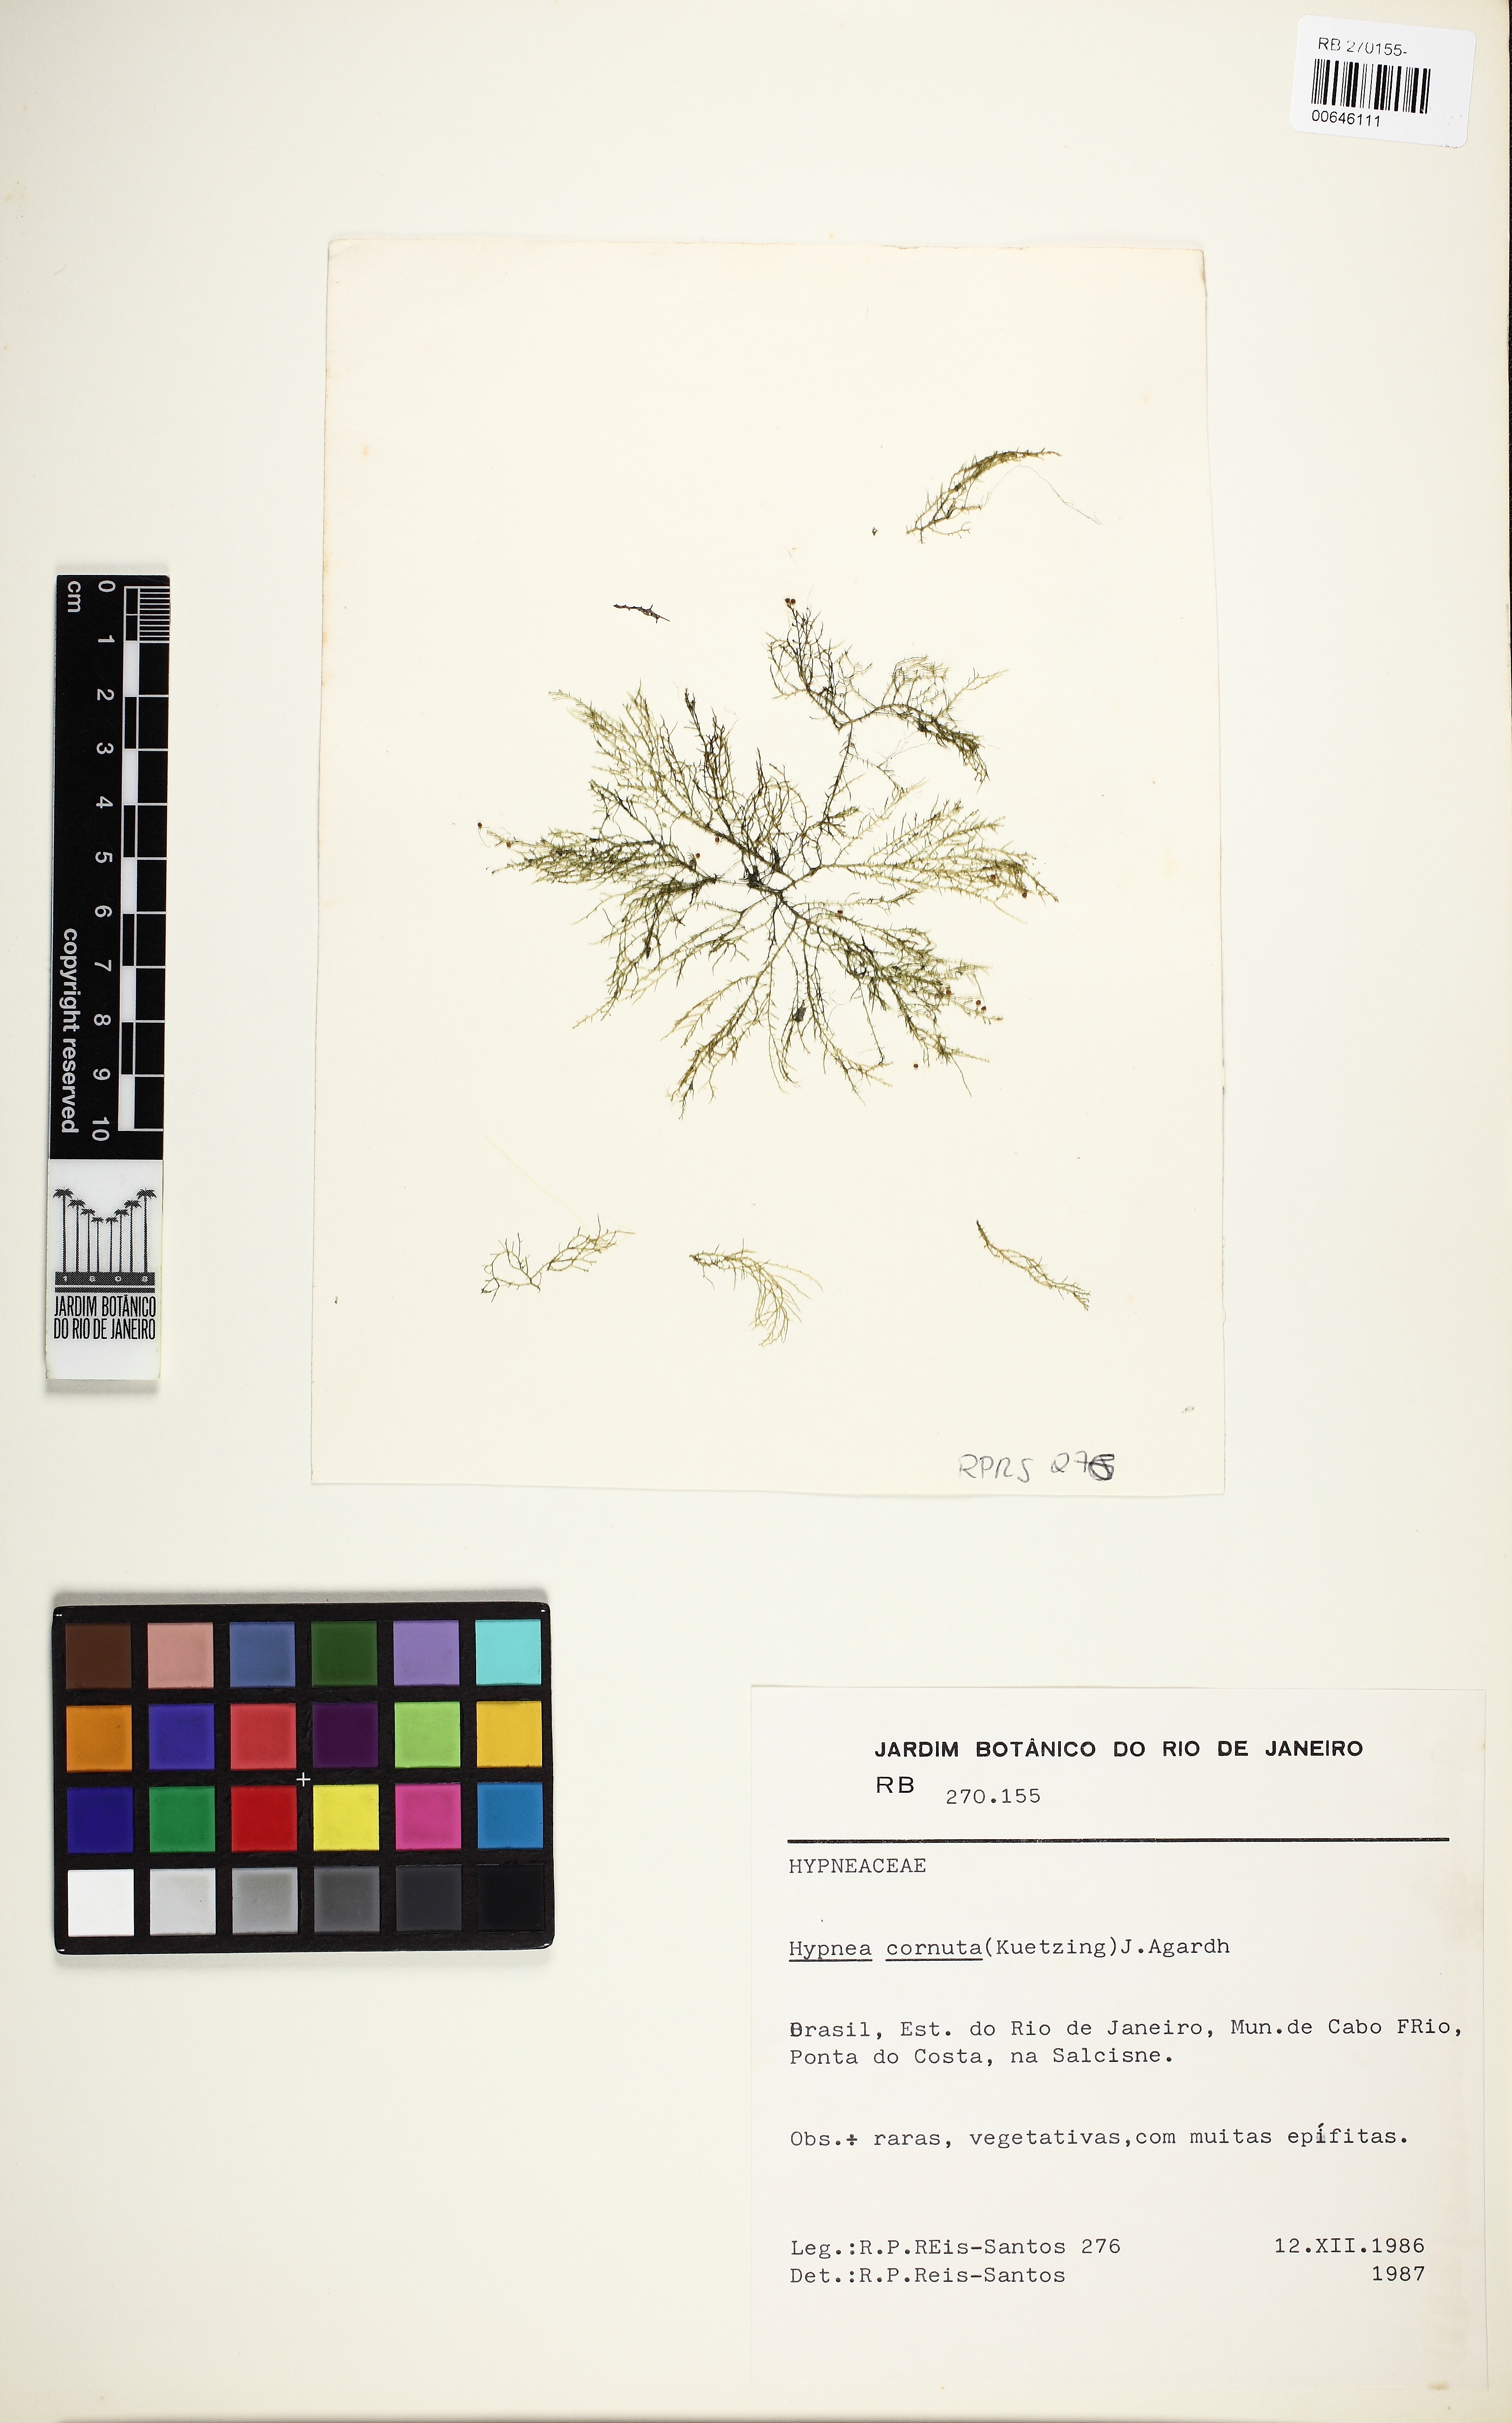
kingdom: Plantae
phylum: Rhodophyta
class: Florideophyceae
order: Gigartinales
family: Cystocloniaceae
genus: Hypnea
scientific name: Hypnea cornuta
